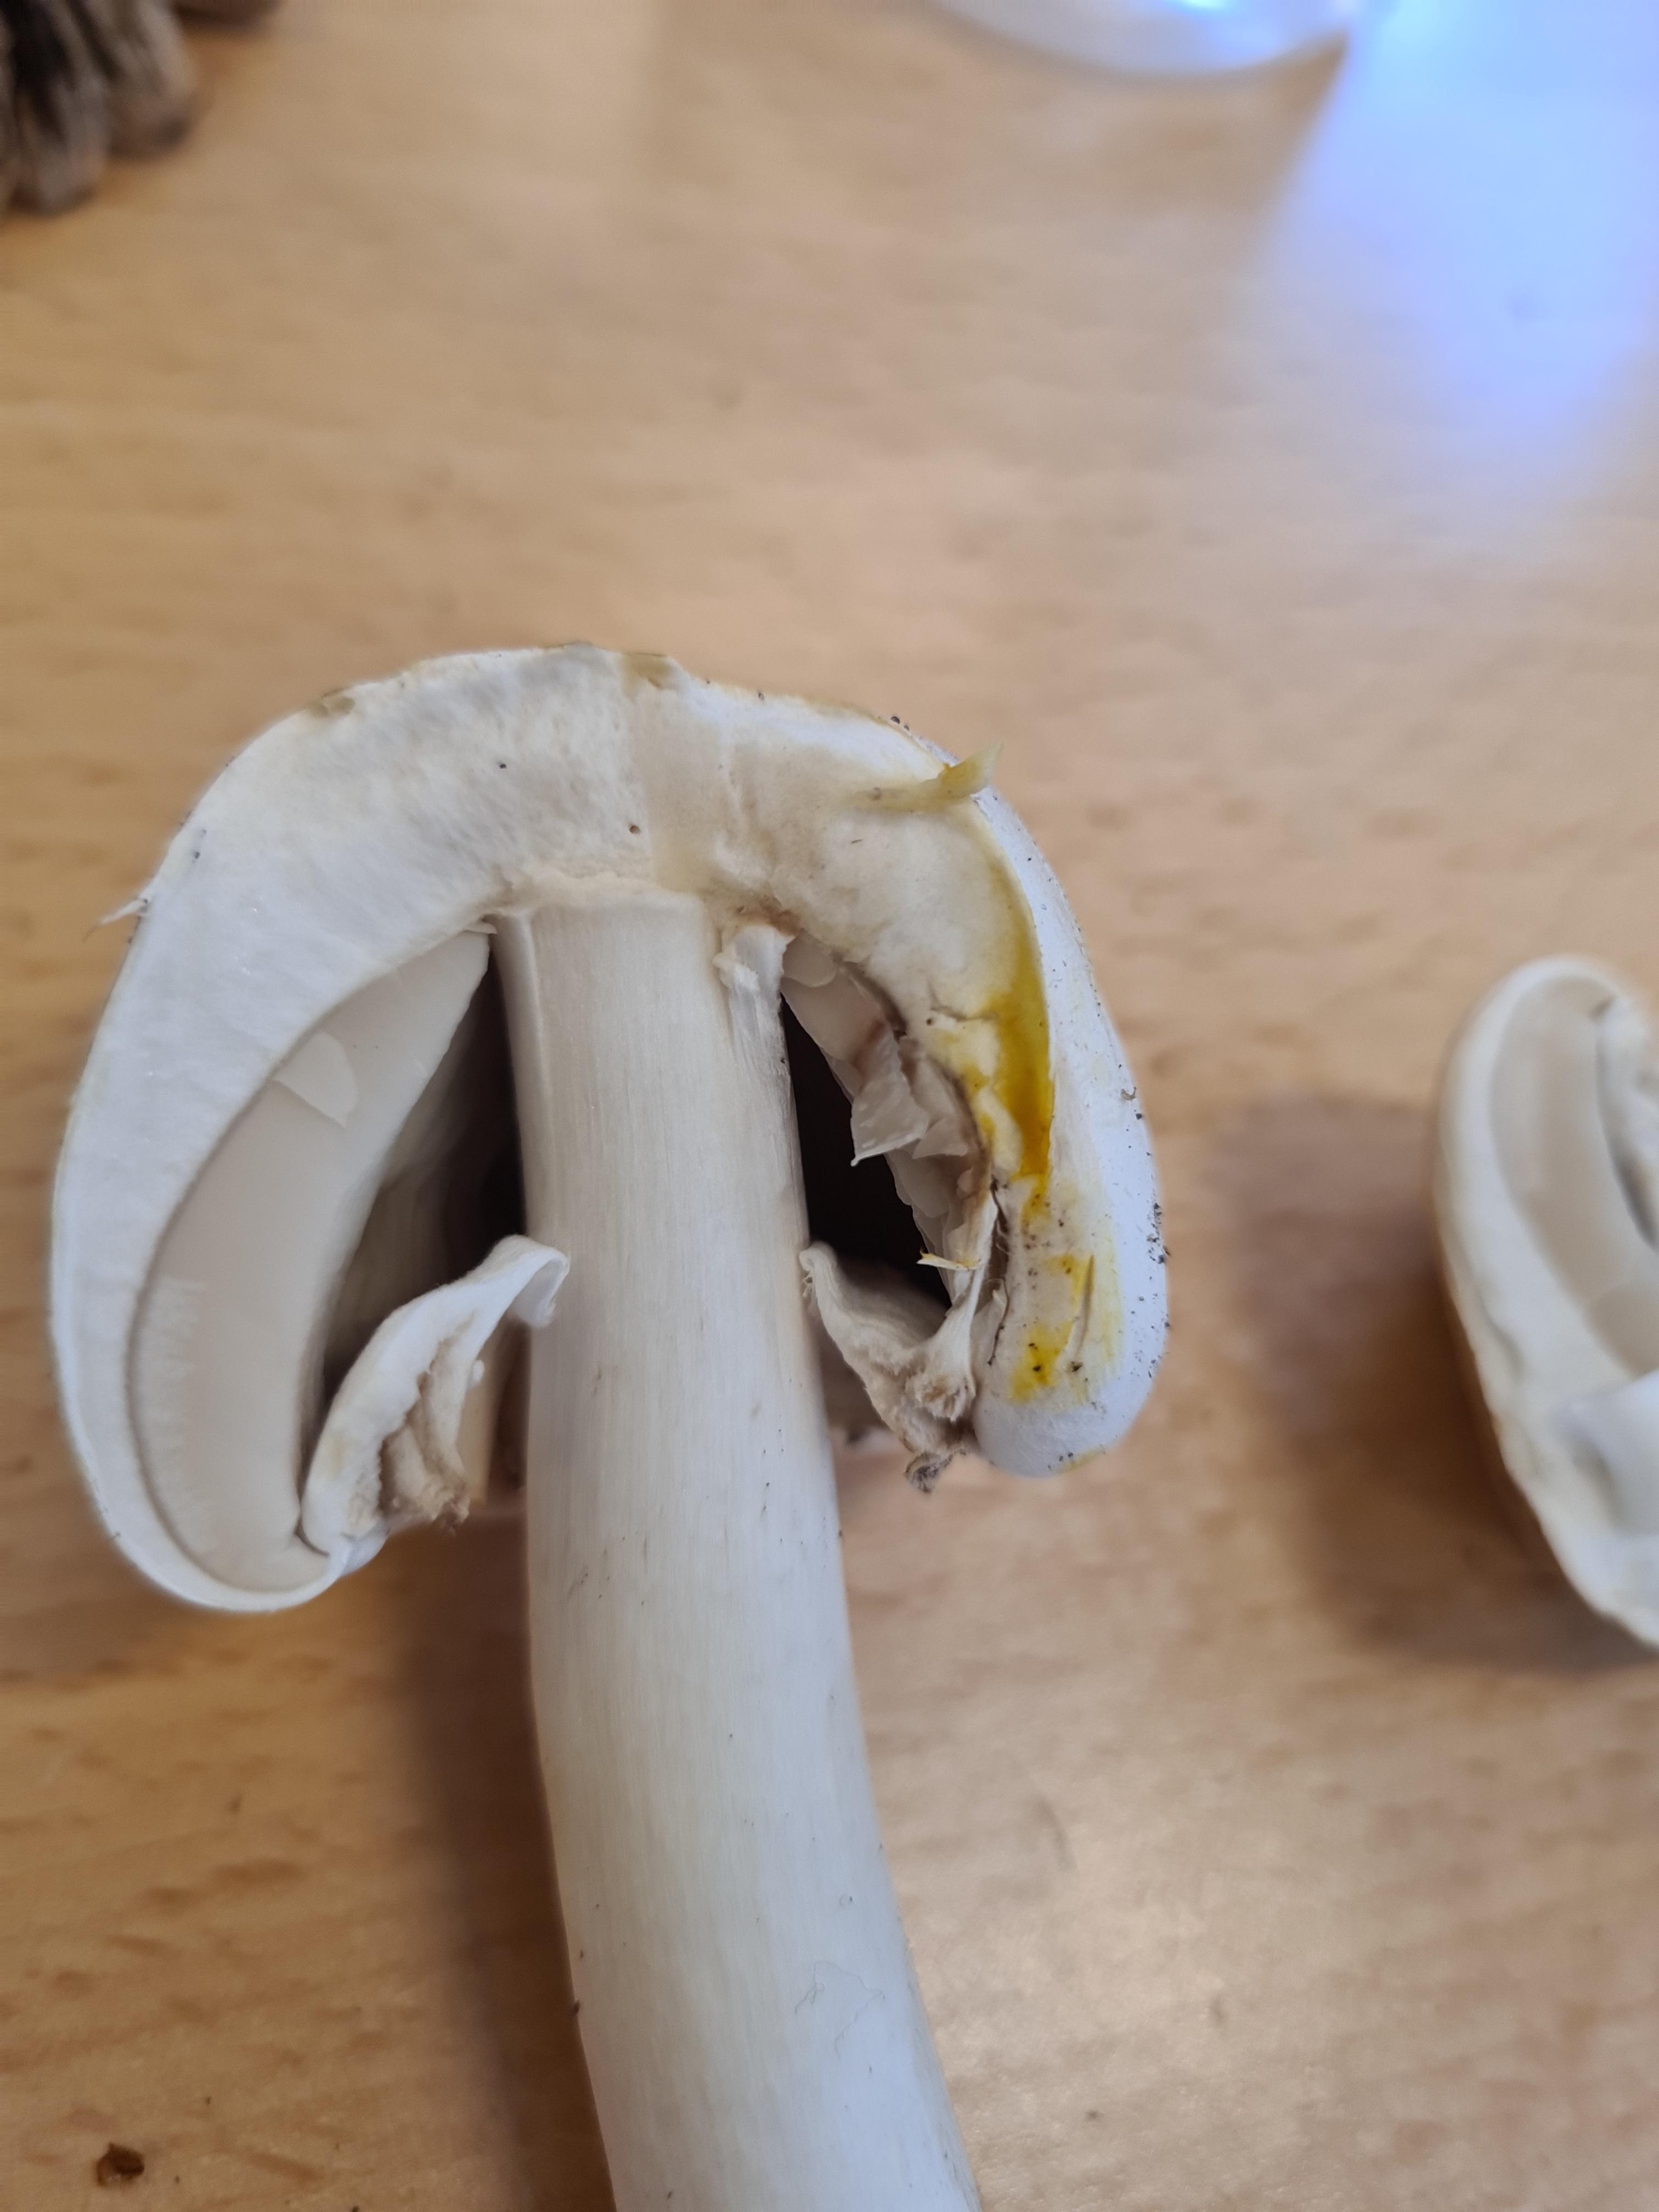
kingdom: Fungi
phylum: Basidiomycota
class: Agaricomycetes
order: Agaricales
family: Agaricaceae
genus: Agaricus
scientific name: Agaricus xanthodermus
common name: karbol-champignon
